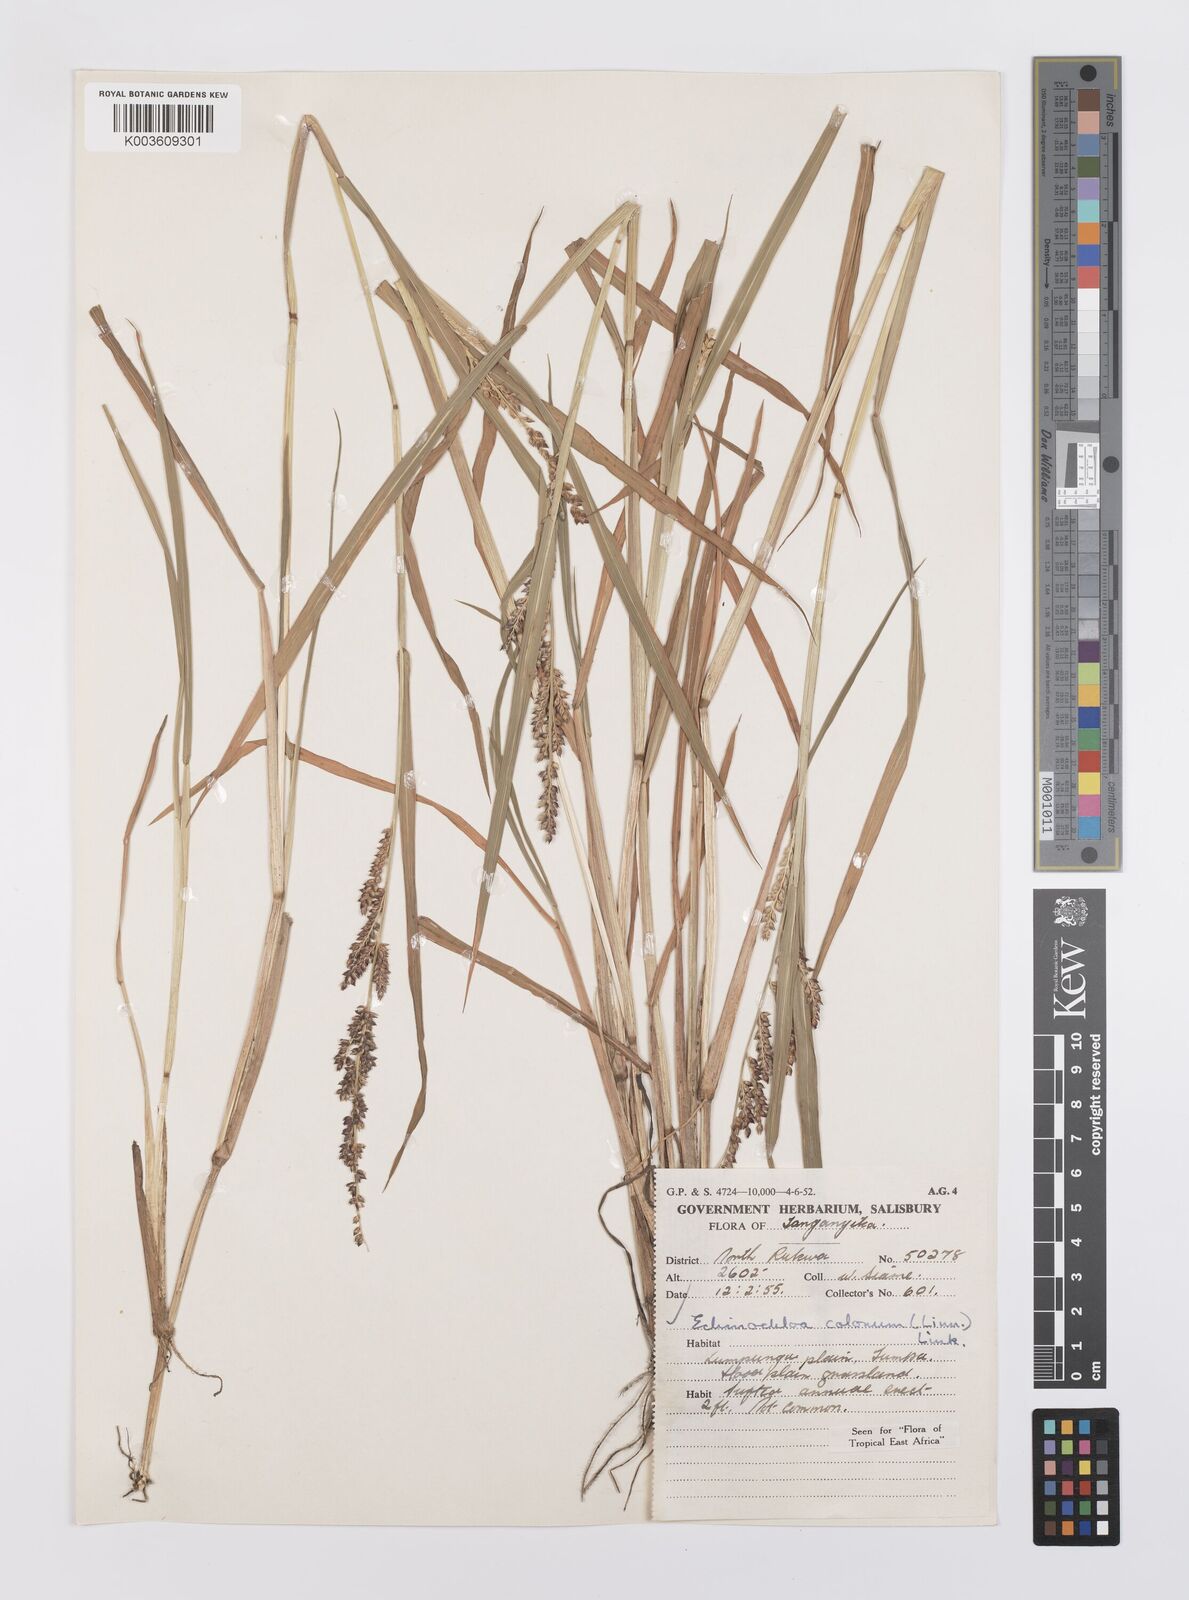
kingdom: Plantae
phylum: Tracheophyta
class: Liliopsida
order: Poales
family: Poaceae
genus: Echinochloa
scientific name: Echinochloa colonum
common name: Jungle rice
